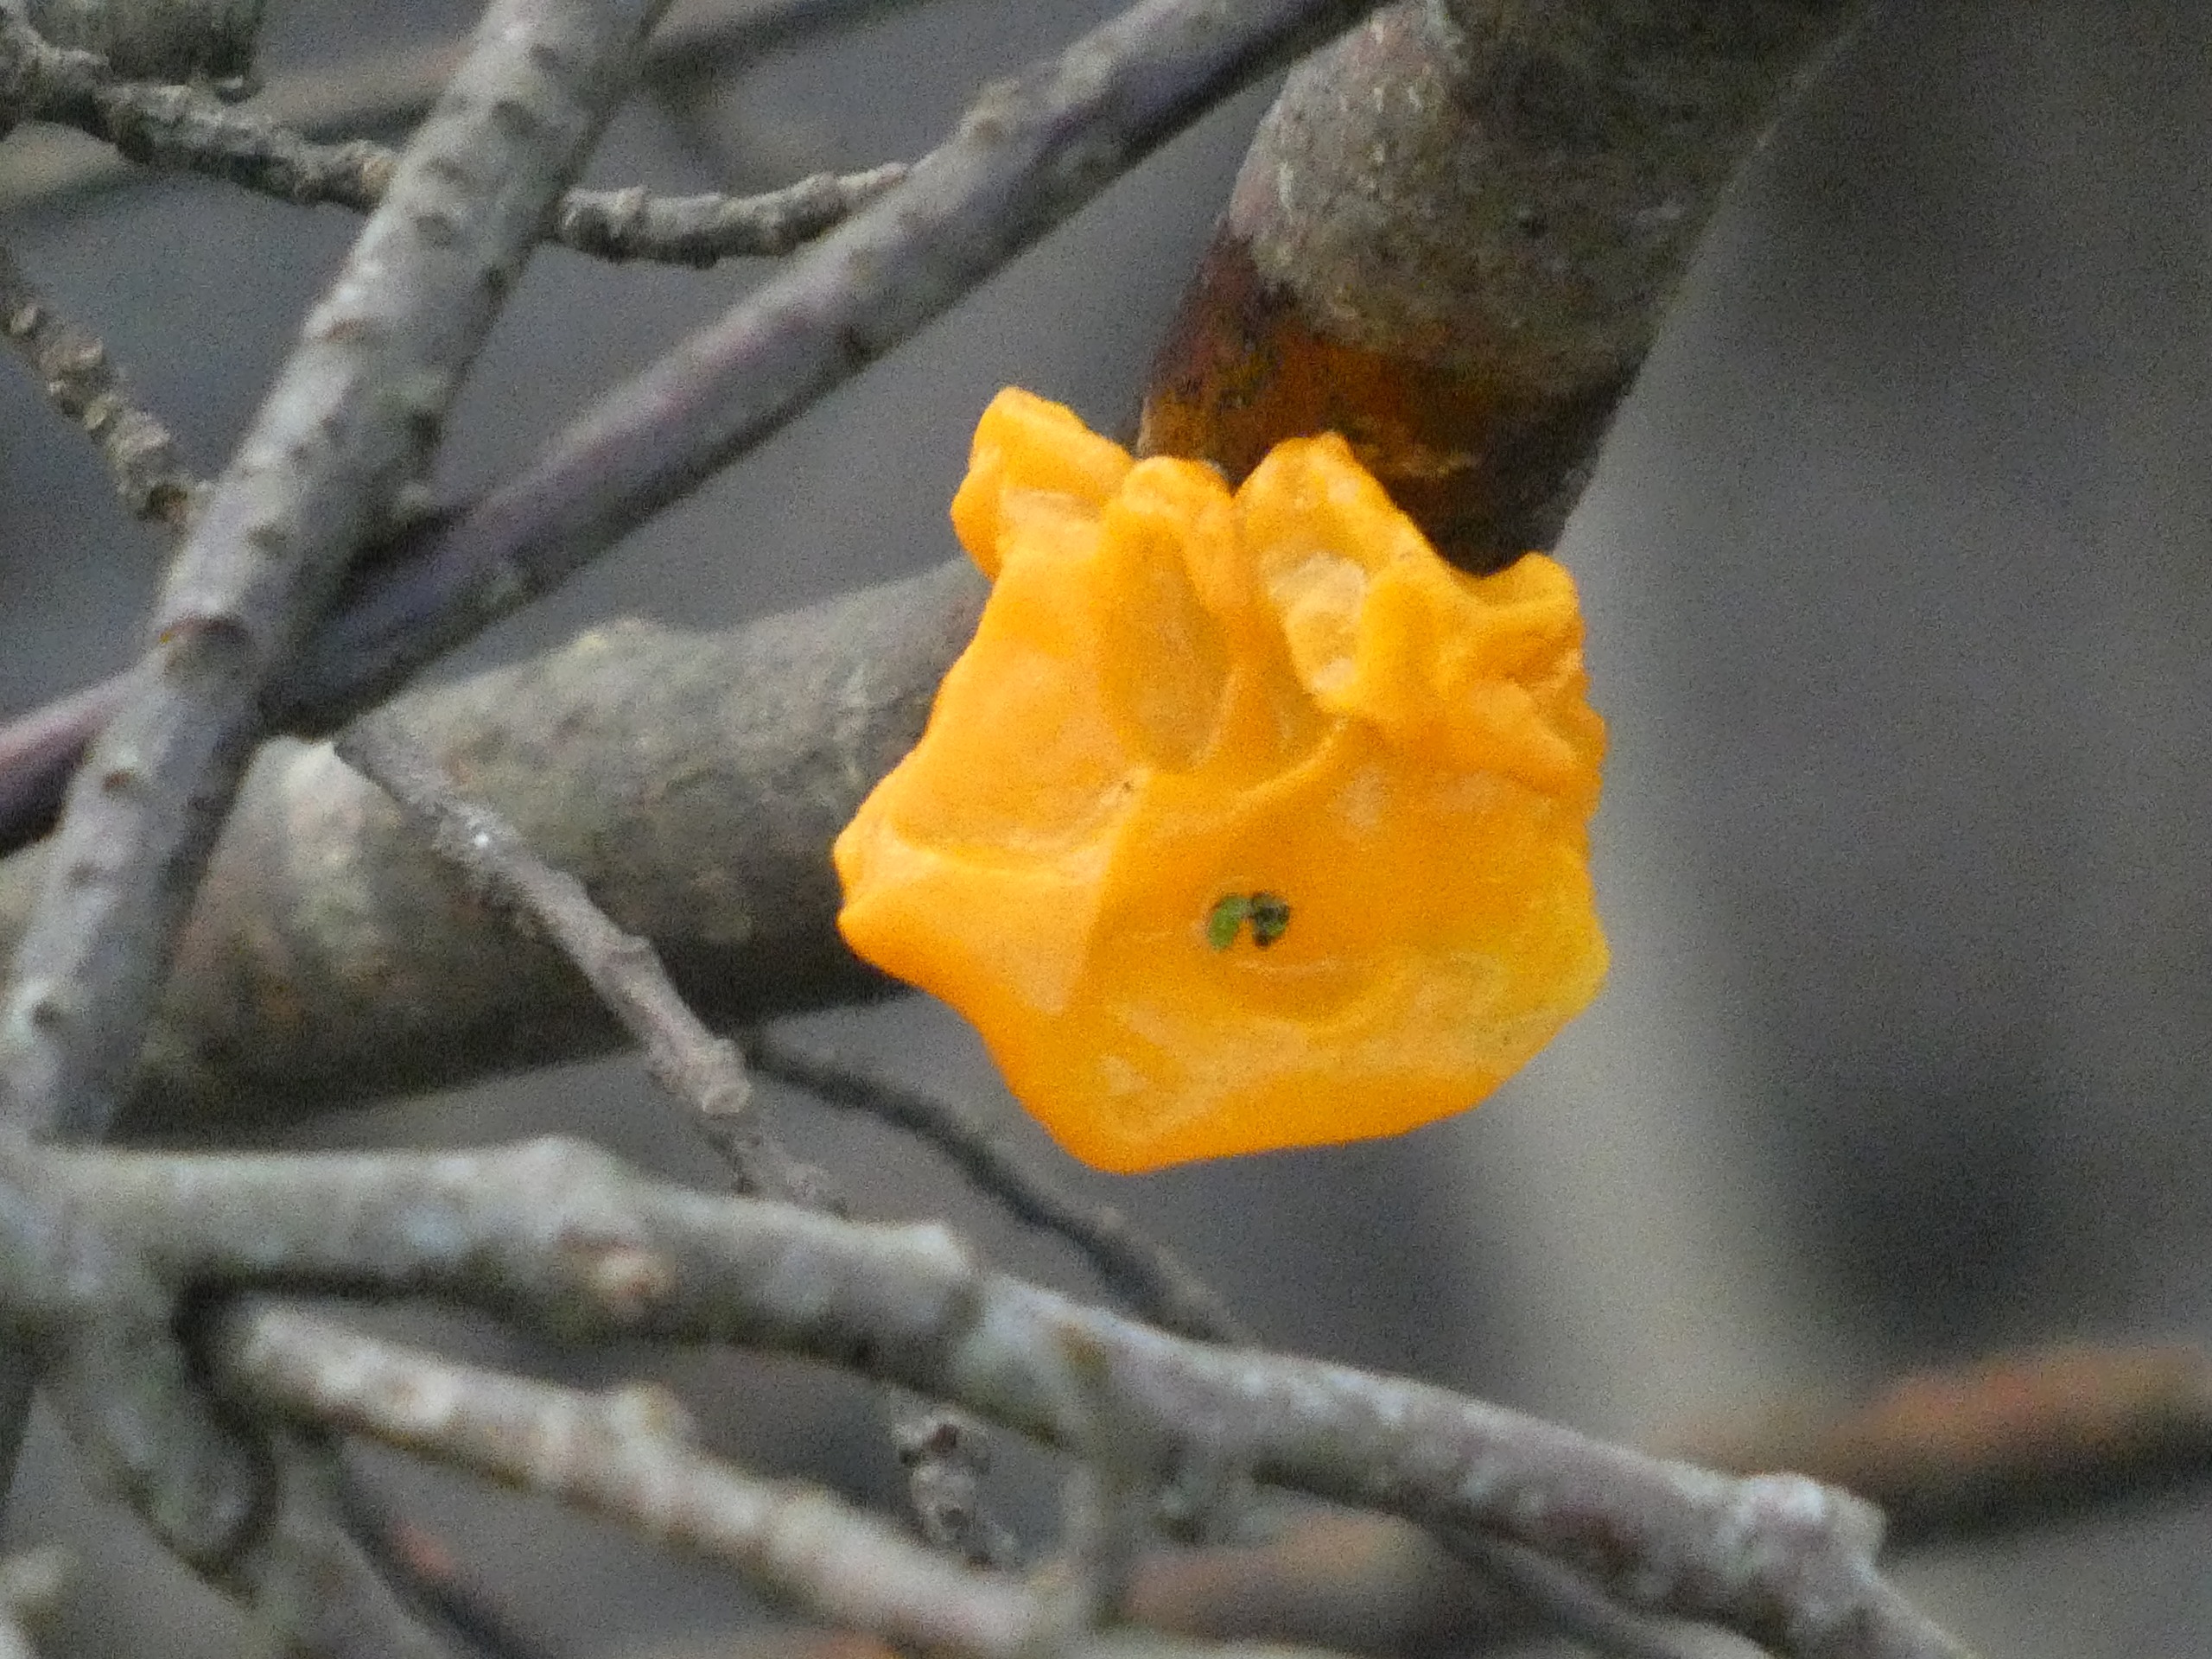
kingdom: Fungi
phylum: Basidiomycota
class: Tremellomycetes
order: Tremellales
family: Tremellaceae
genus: Tremella
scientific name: Tremella mesenterica
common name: Gul bævresvamp
